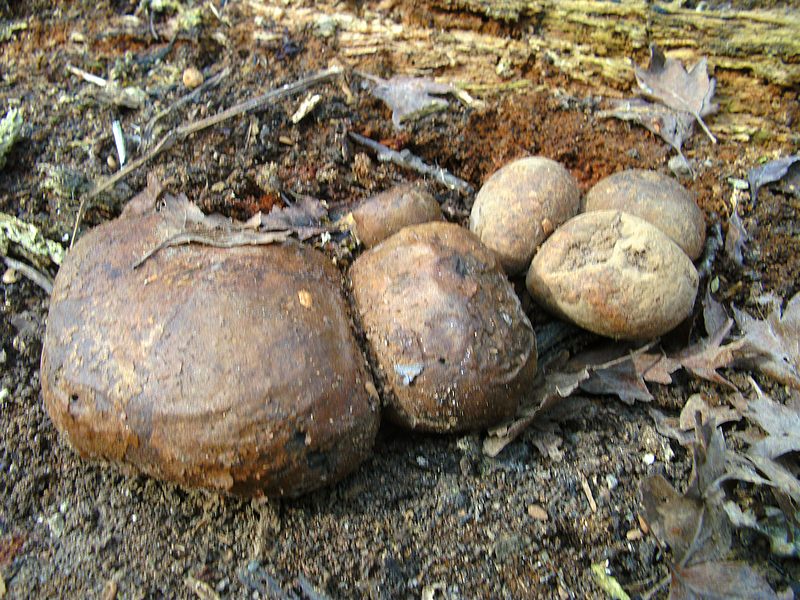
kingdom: Protozoa
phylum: Mycetozoa
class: Myxomycetes
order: Cribrariales
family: Tubiferaceae
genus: Lycogala
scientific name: Lycogala flavofuscum
